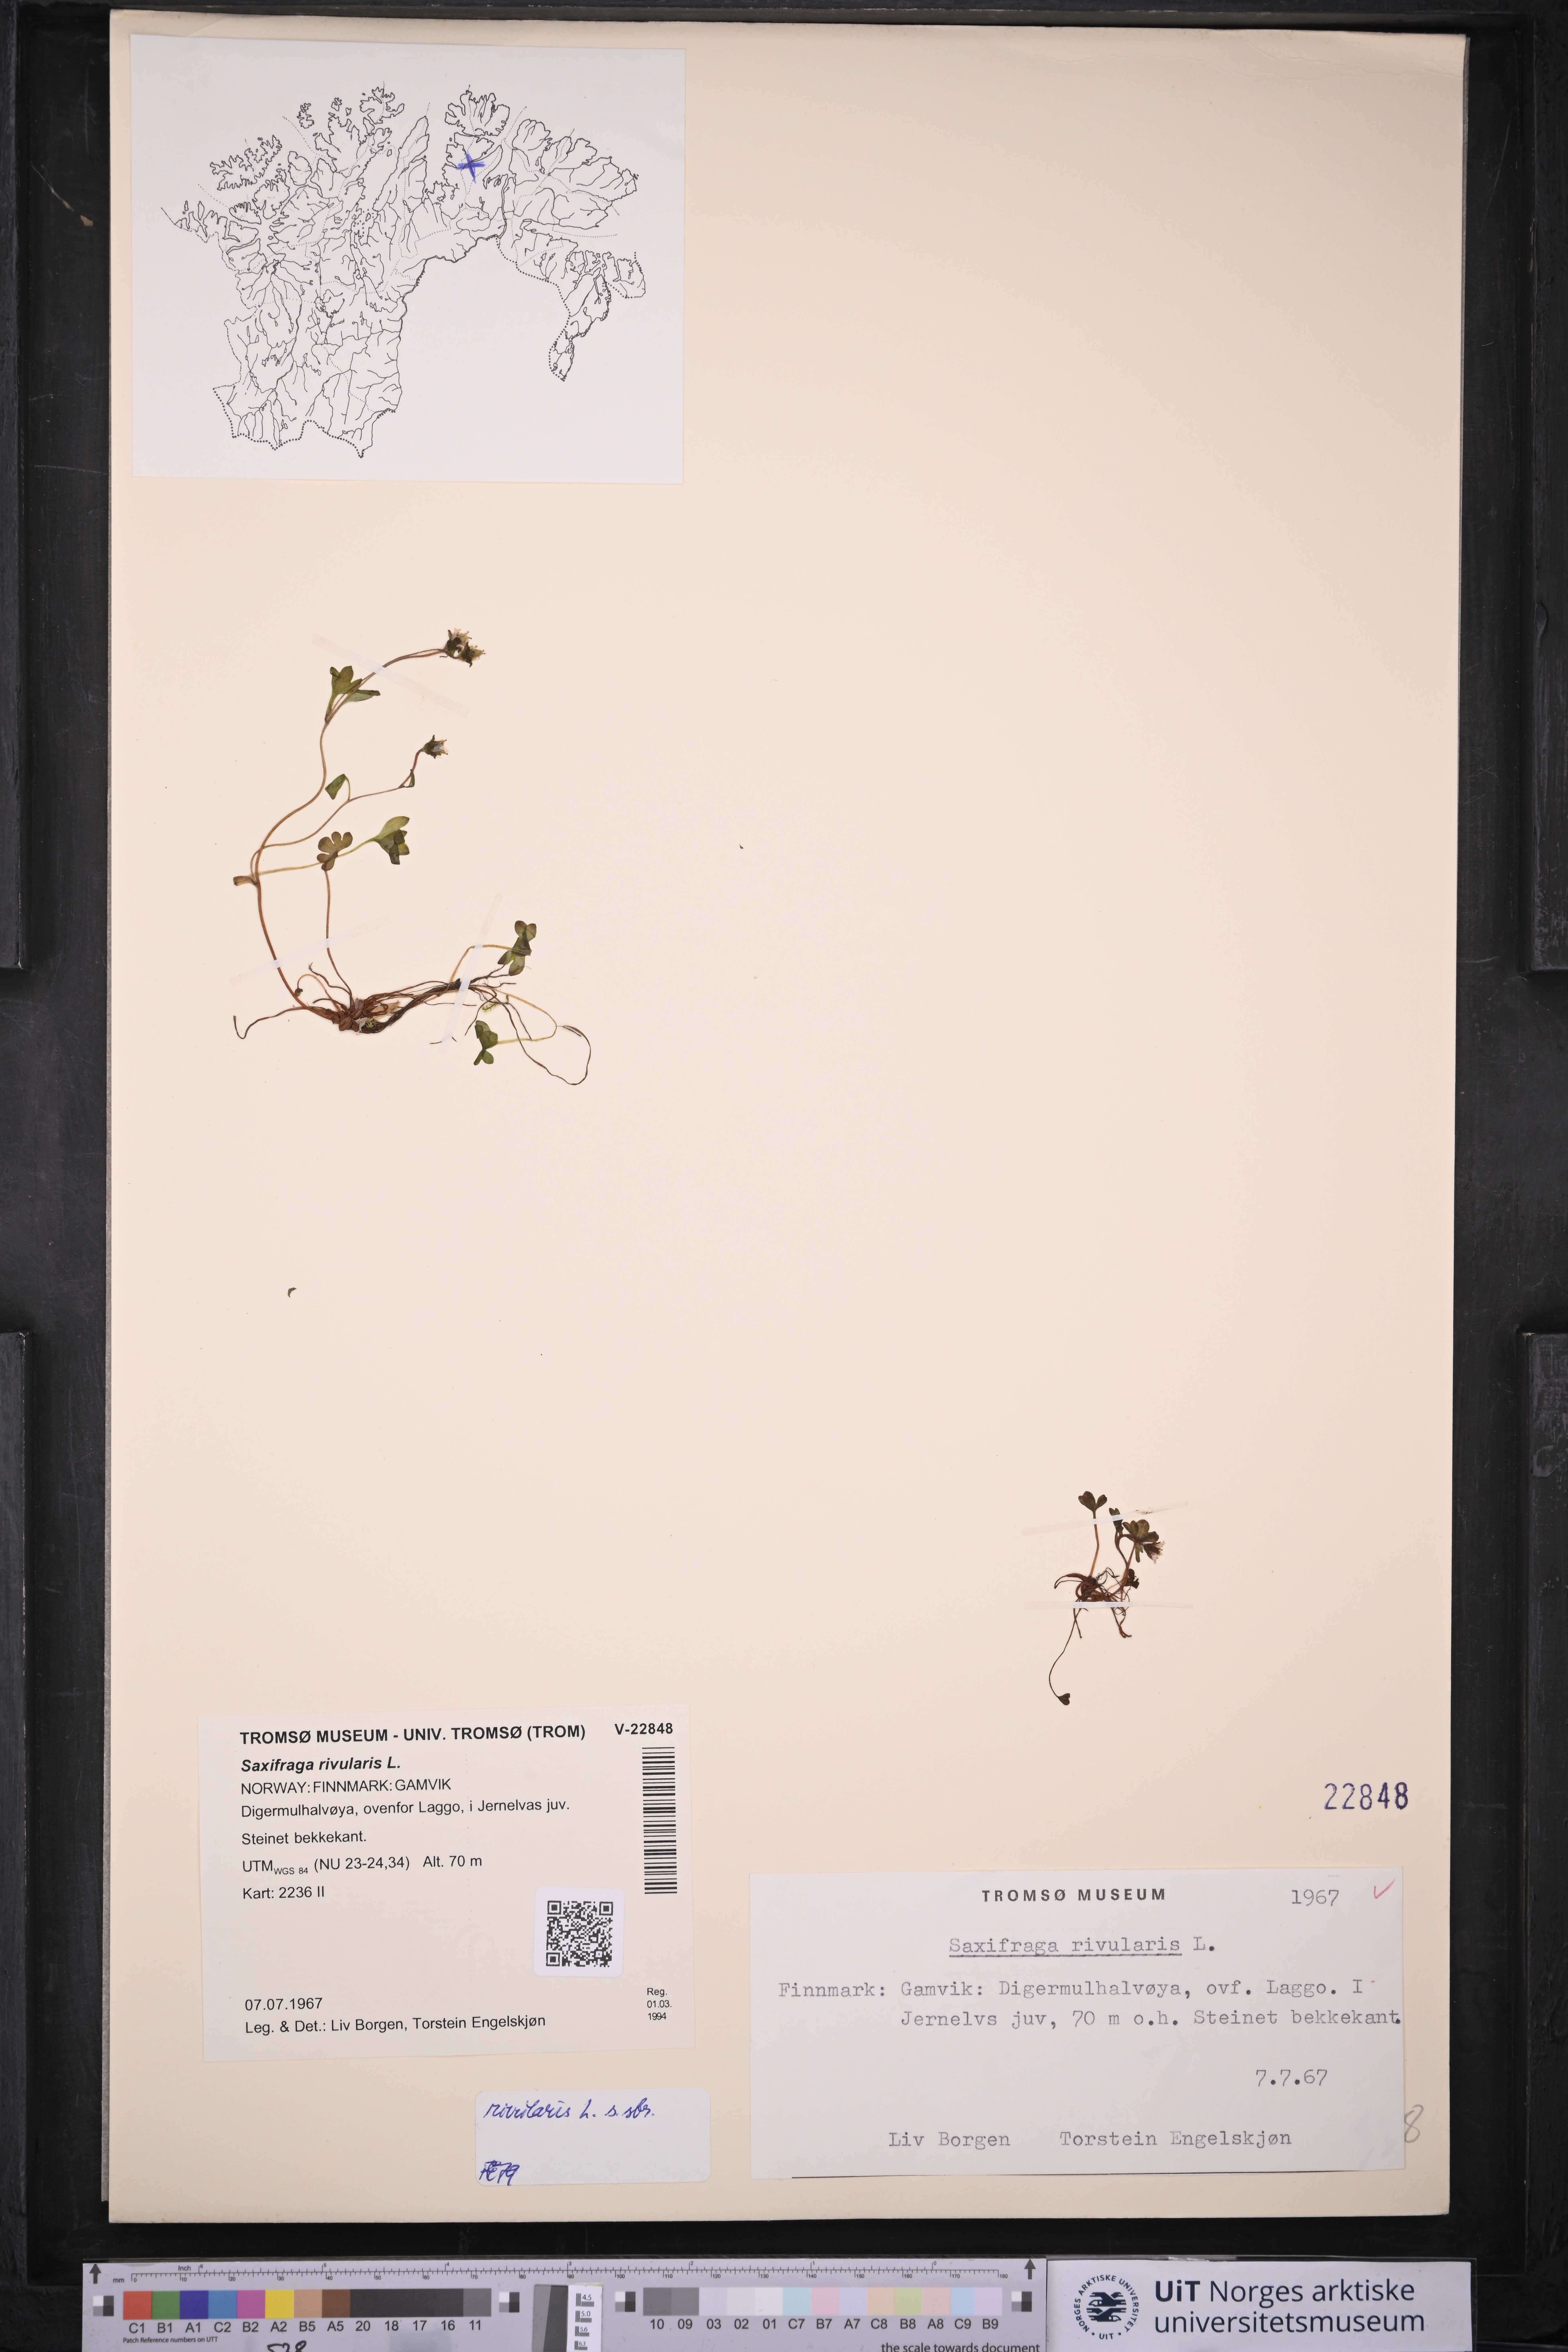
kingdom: Plantae
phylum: Tracheophyta
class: Magnoliopsida
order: Saxifragales
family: Saxifragaceae
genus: Saxifraga
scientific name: Saxifraga rivularis
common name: Highland saxifrage
